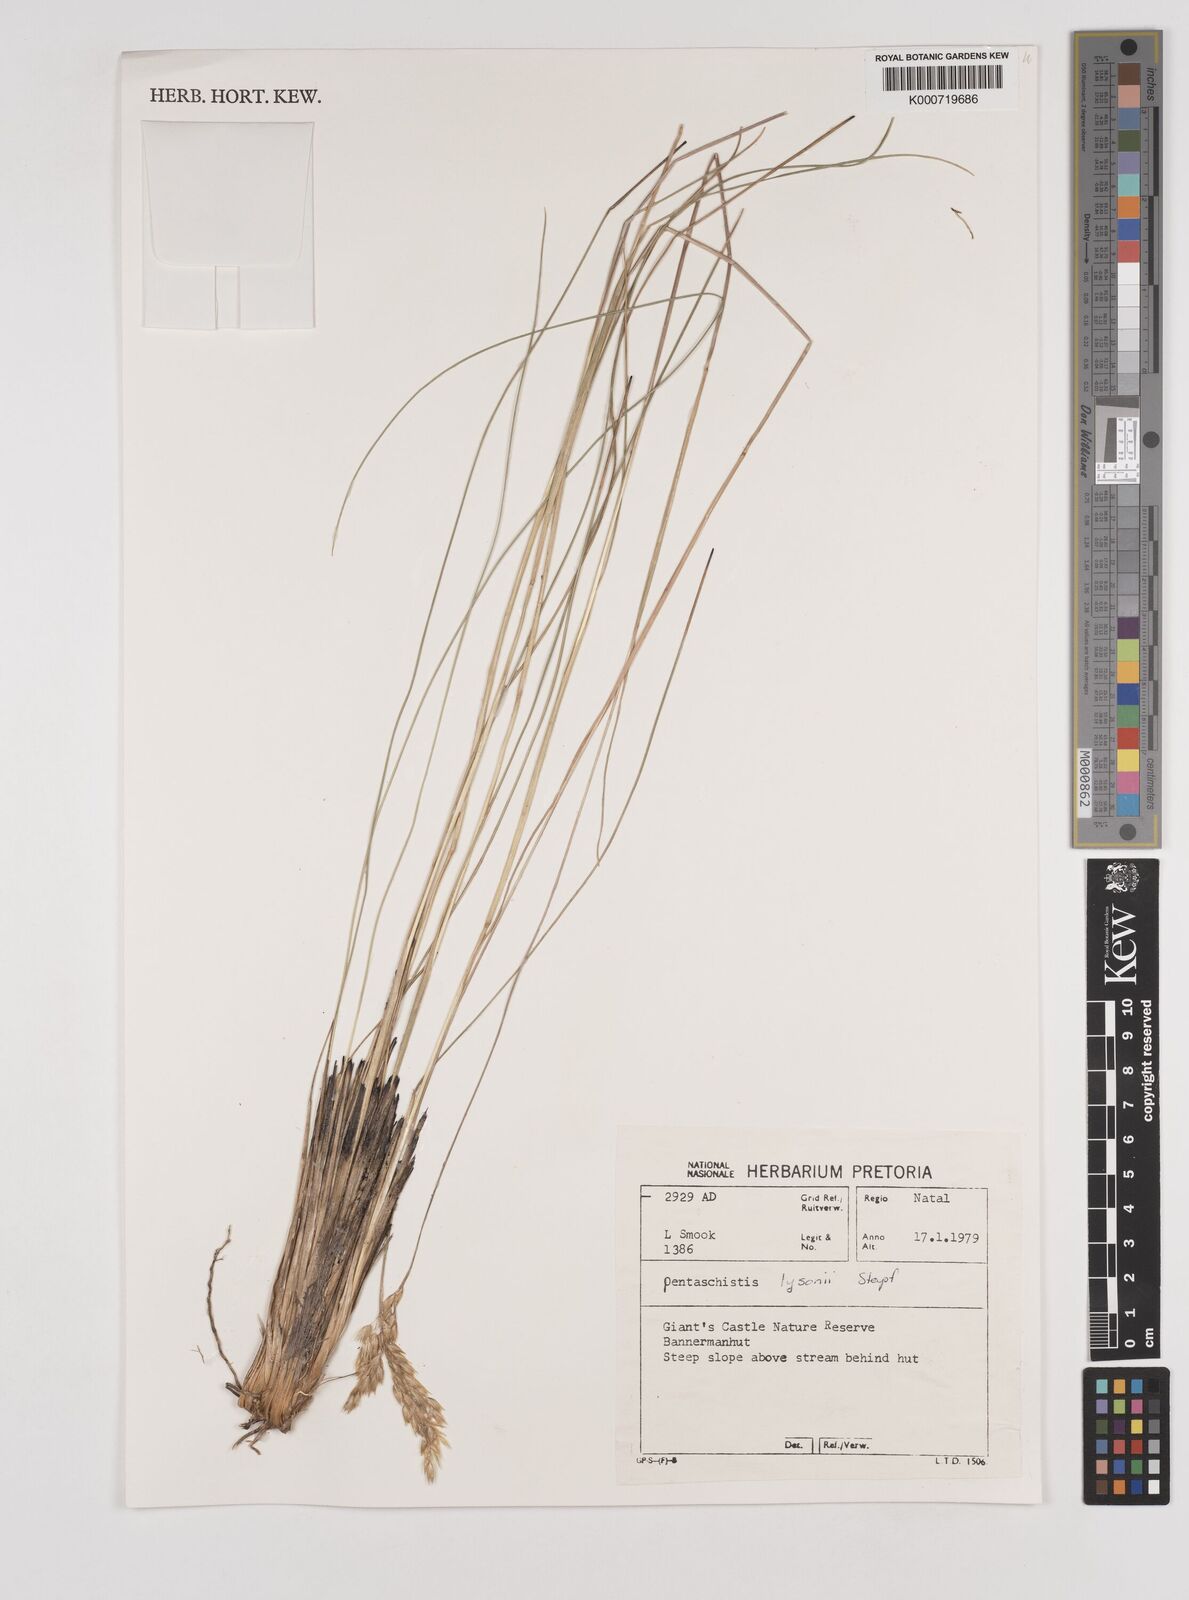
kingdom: Plantae
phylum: Tracheophyta
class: Liliopsida
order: Poales
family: Poaceae
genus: Pentameris
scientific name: Pentameris tysonii
